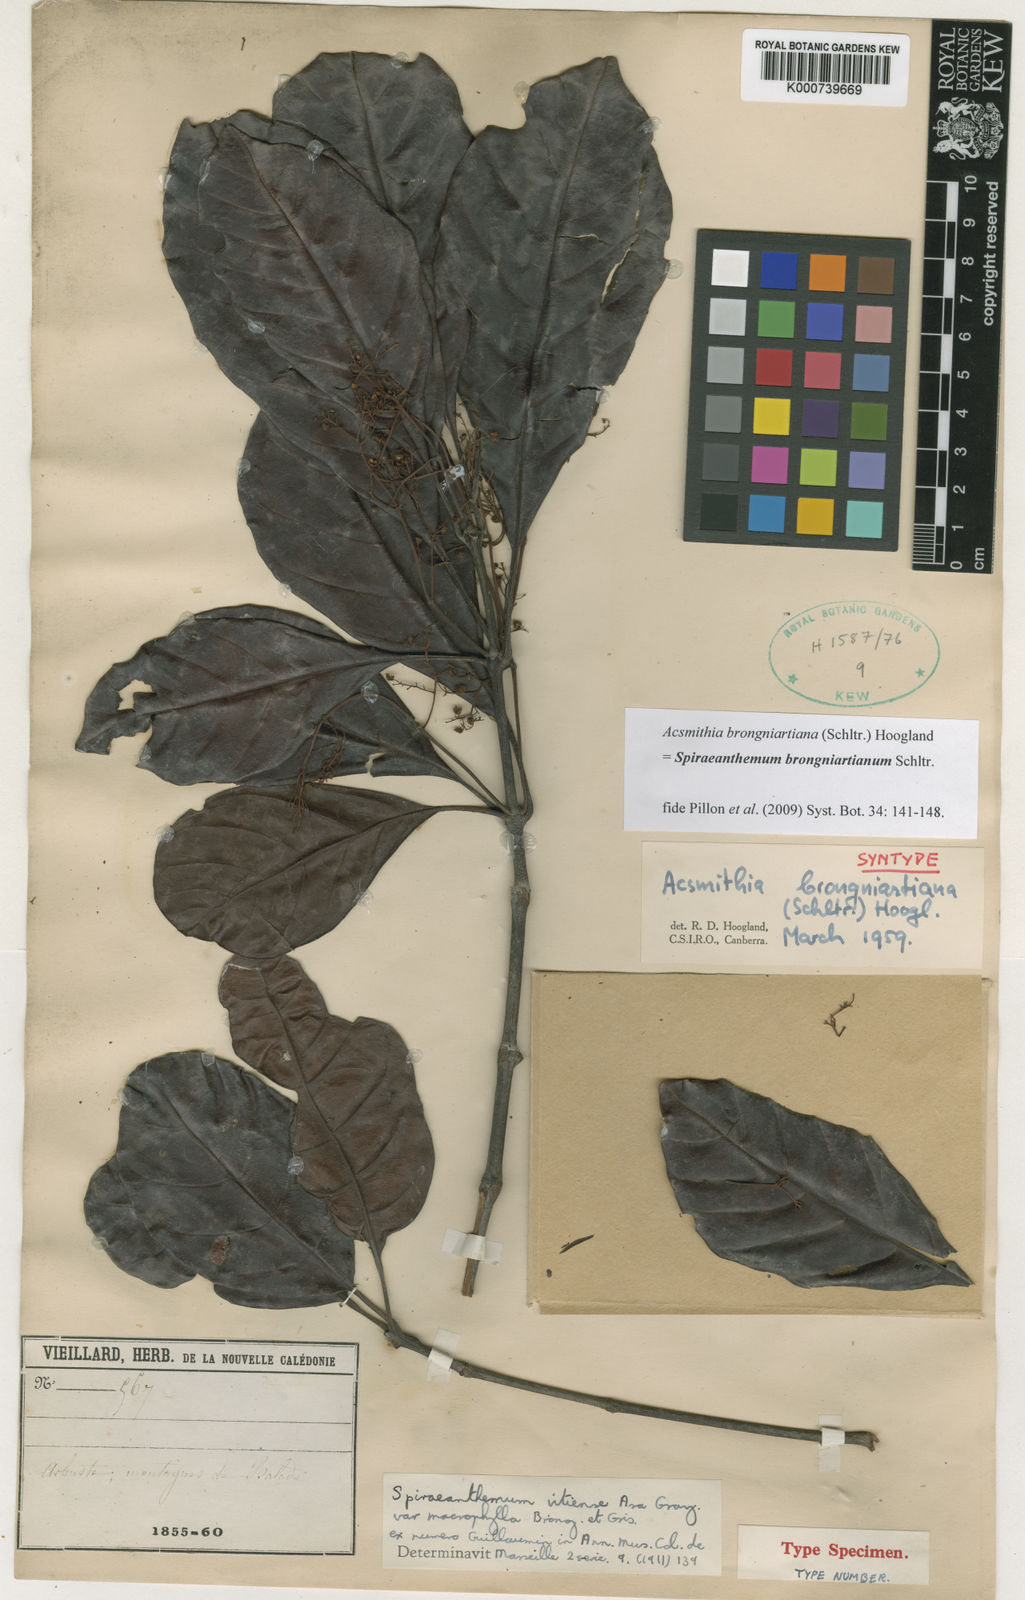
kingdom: Plantae
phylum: Tracheophyta
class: Magnoliopsida
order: Oxalidales
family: Cunoniaceae
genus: Spiraeanthemum
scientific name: Spiraeanthemum brongniartianum
